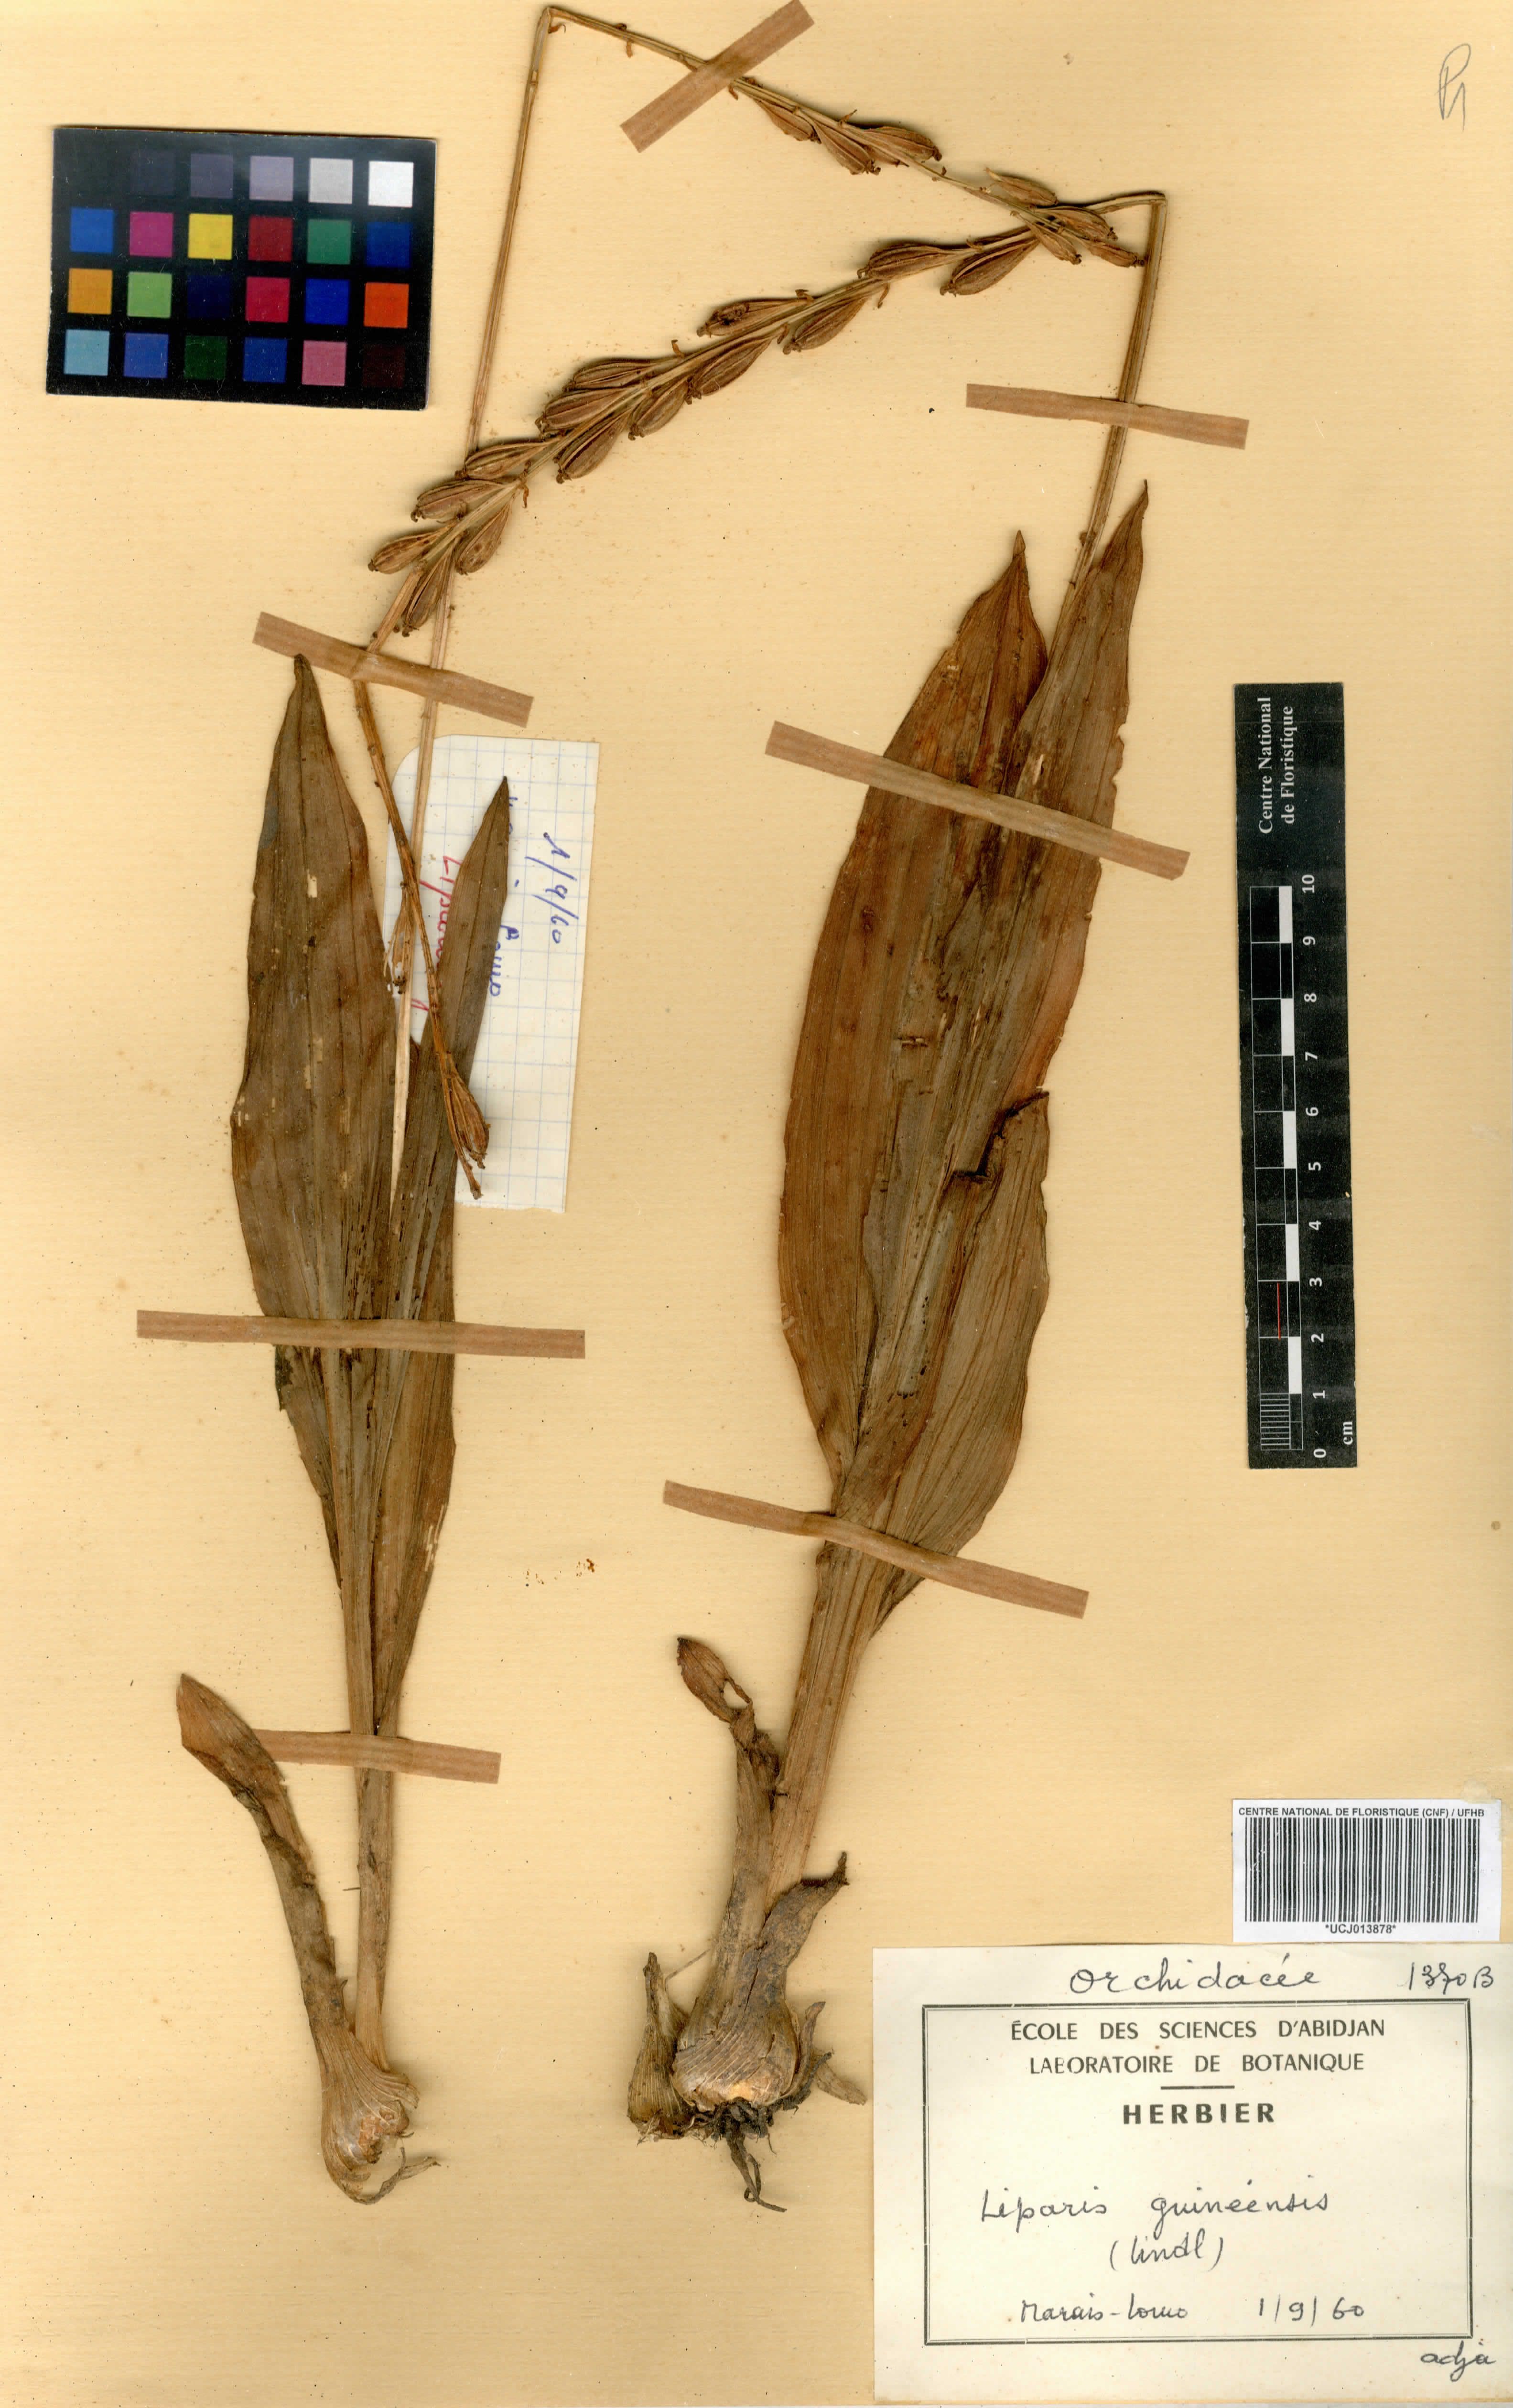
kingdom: Plantae
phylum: Tracheophyta
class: Liliopsida
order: Asparagales
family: Orchidaceae
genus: Liparis
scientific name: Liparis nervosa
